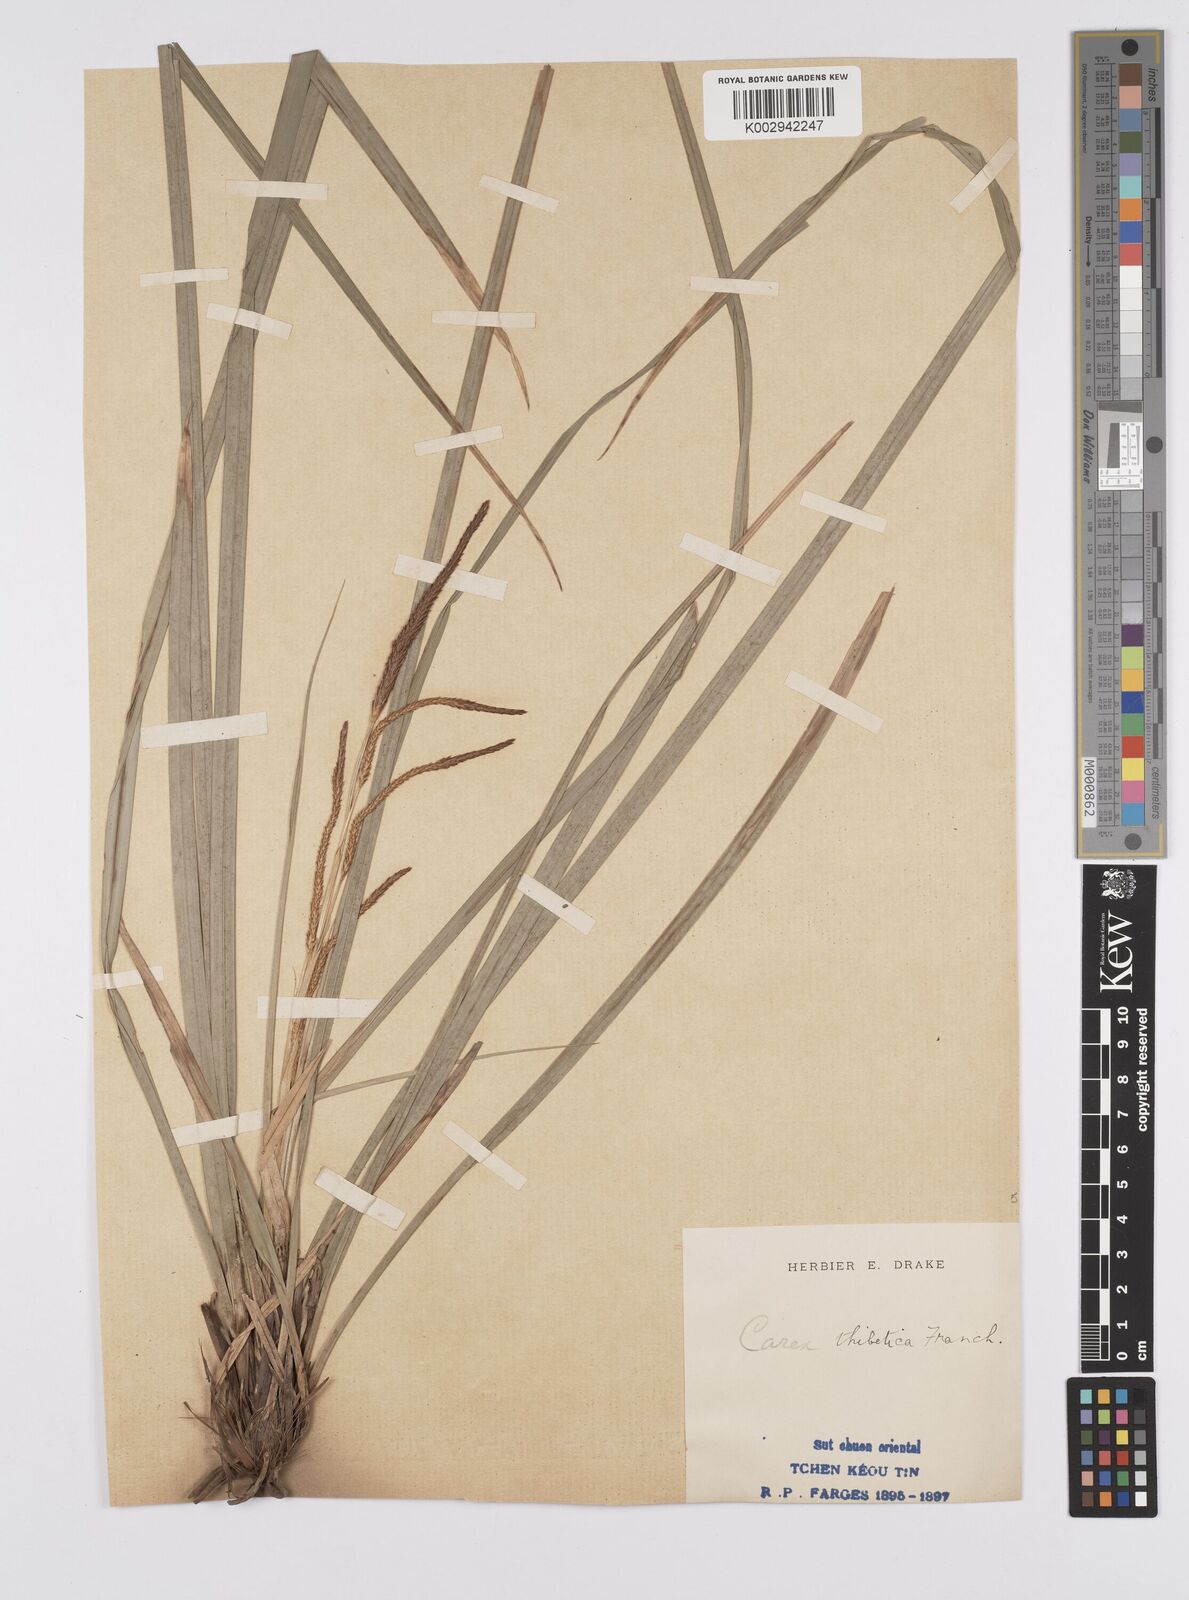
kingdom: Plantae
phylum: Tracheophyta
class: Liliopsida
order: Poales
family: Cyperaceae
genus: Carex
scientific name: Carex thibetica
